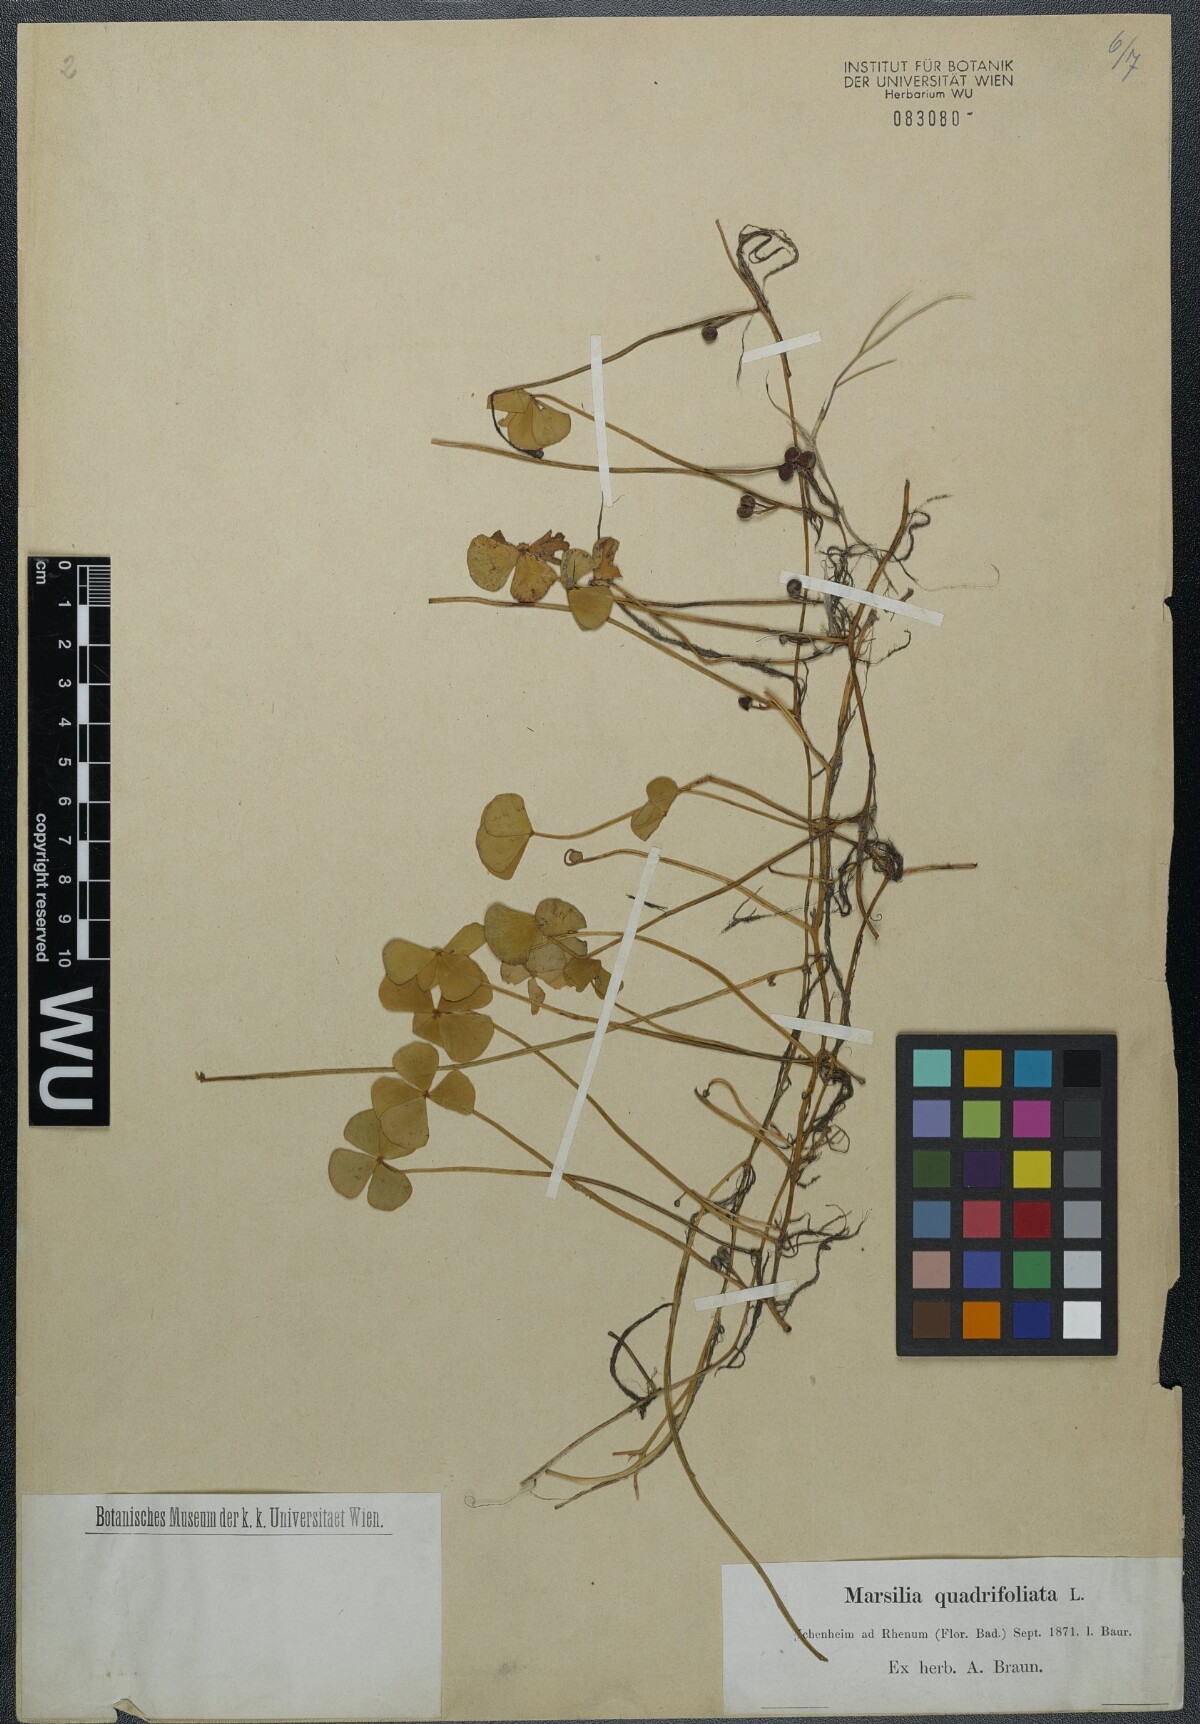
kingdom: Plantae
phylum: Tracheophyta
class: Polypodiopsida
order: Salviniales
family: Marsileaceae
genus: Marsilea
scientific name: Marsilea quadrifolia
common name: Water shamrock
